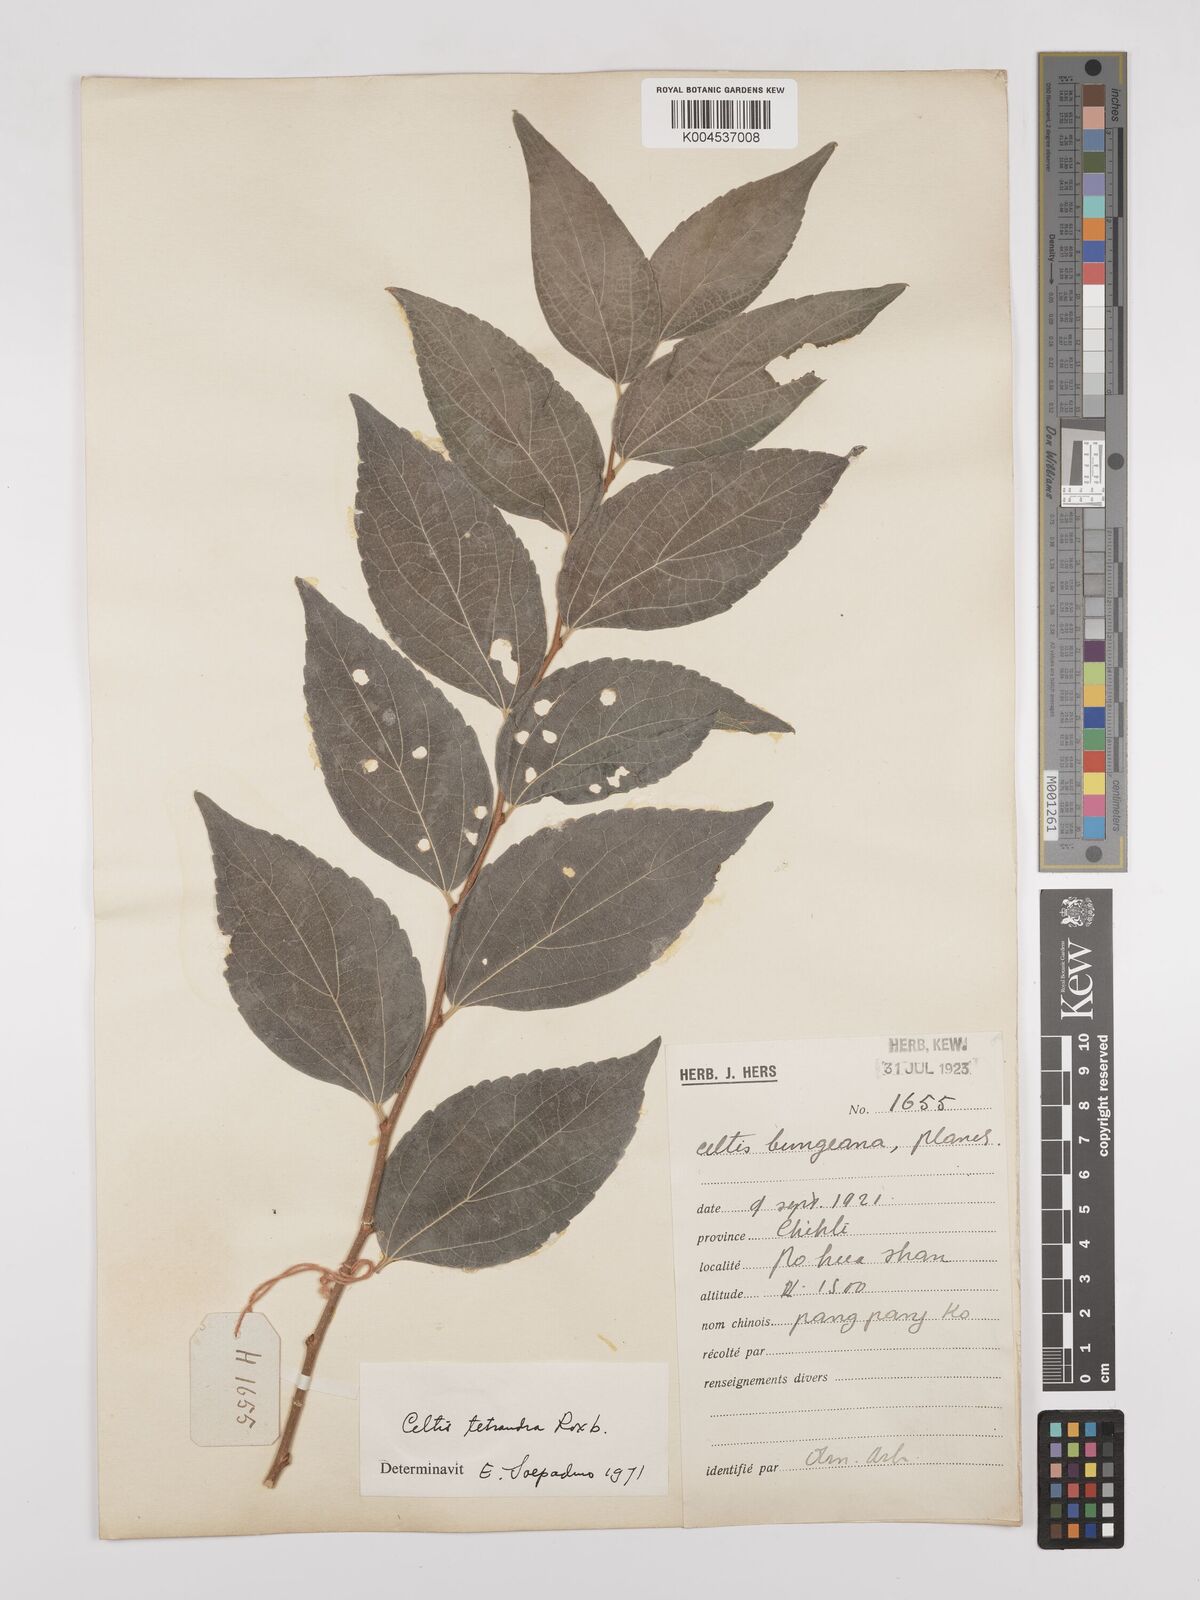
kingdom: Plantae
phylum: Tracheophyta
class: Magnoliopsida
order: Rosales
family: Cannabaceae
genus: Celtis
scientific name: Celtis tetrandra
